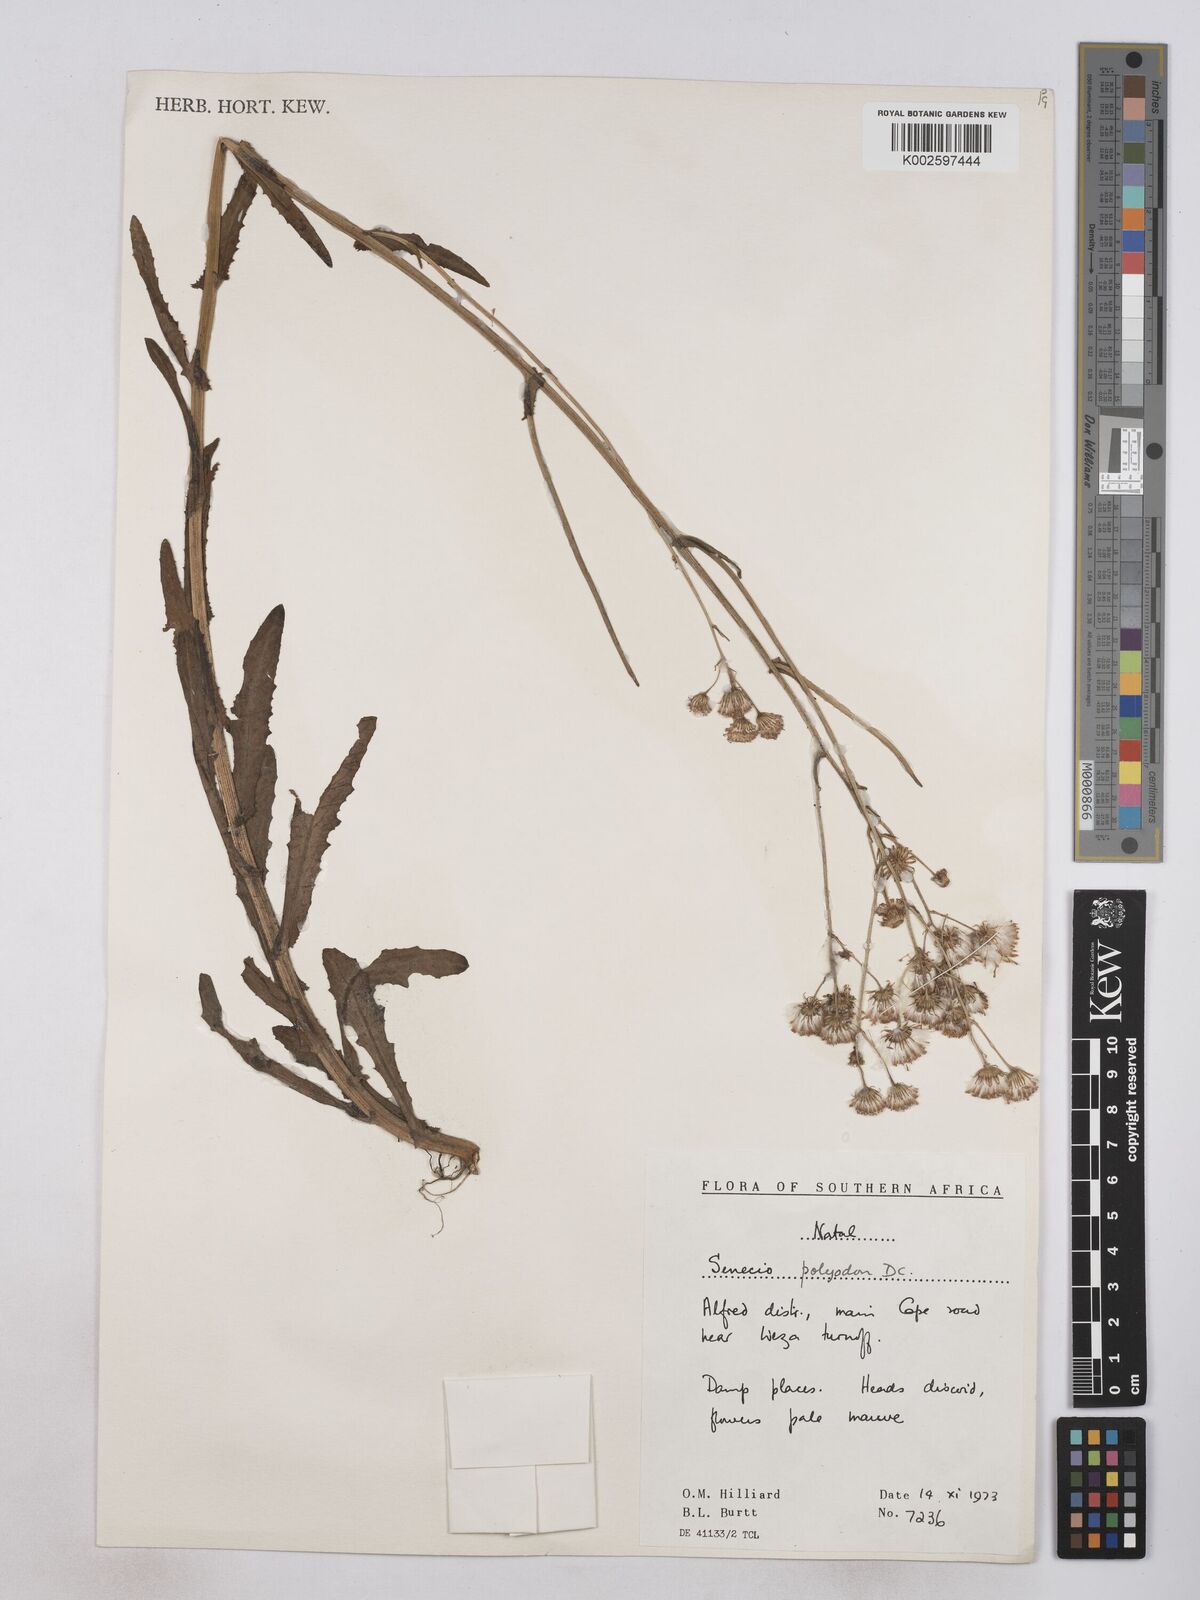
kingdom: Plantae
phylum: Tracheophyta
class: Magnoliopsida
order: Asterales
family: Asteraceae
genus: Senecio
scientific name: Senecio polyodon
